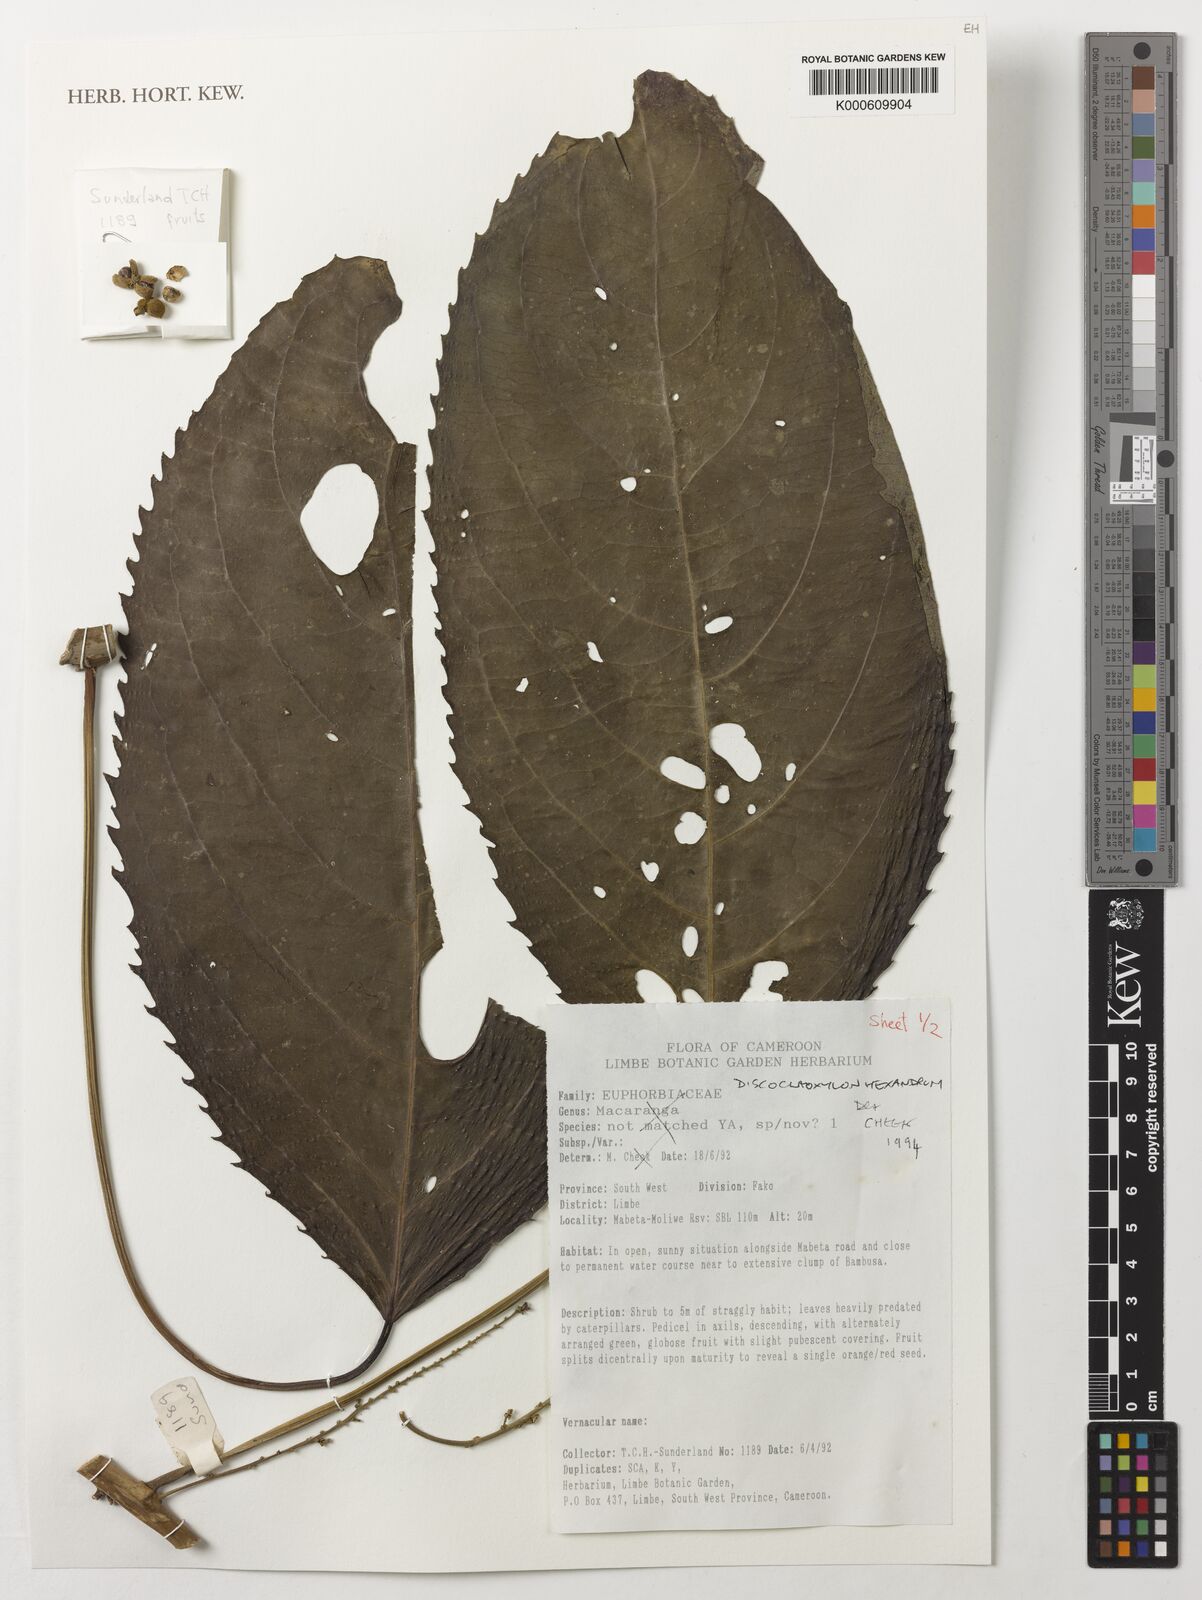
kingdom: Plantae
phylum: Tracheophyta
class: Magnoliopsida
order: Malpighiales
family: Euphorbiaceae
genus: Discoclaoxylon
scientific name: Discoclaoxylon hexandrum
